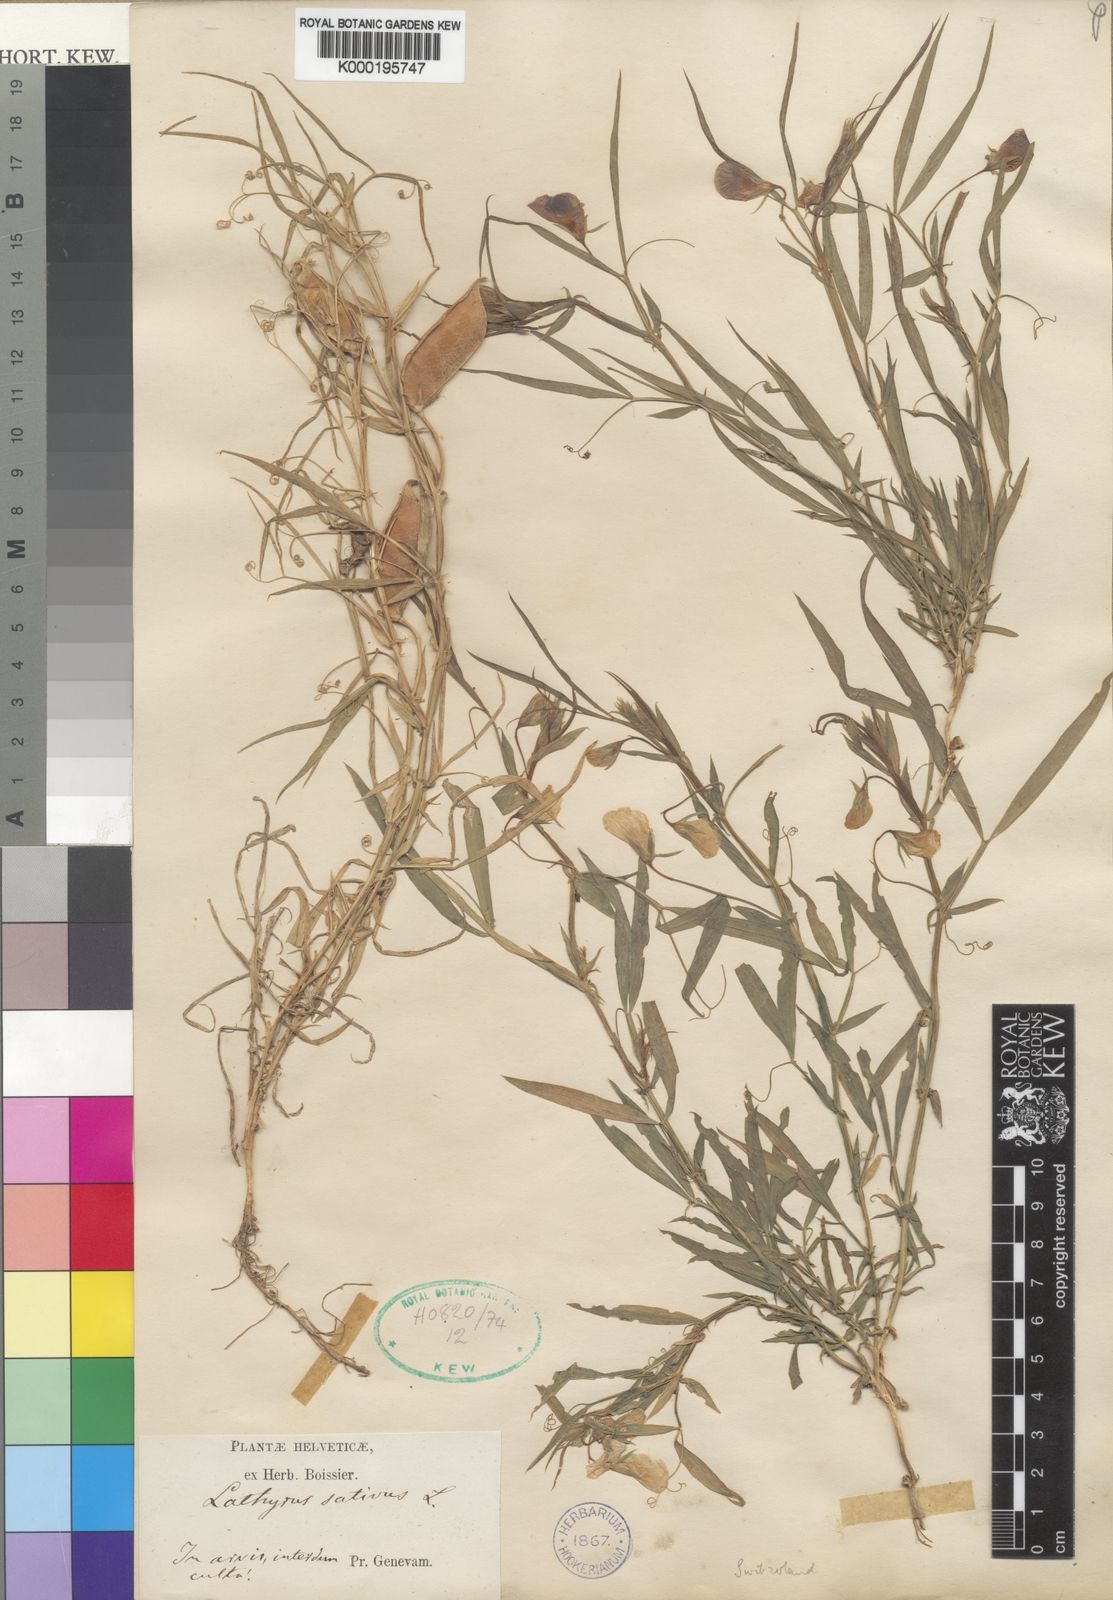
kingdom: Plantae
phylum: Tracheophyta
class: Magnoliopsida
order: Fabales
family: Fabaceae
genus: Lathyrus
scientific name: Lathyrus sativus
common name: Indian pea
